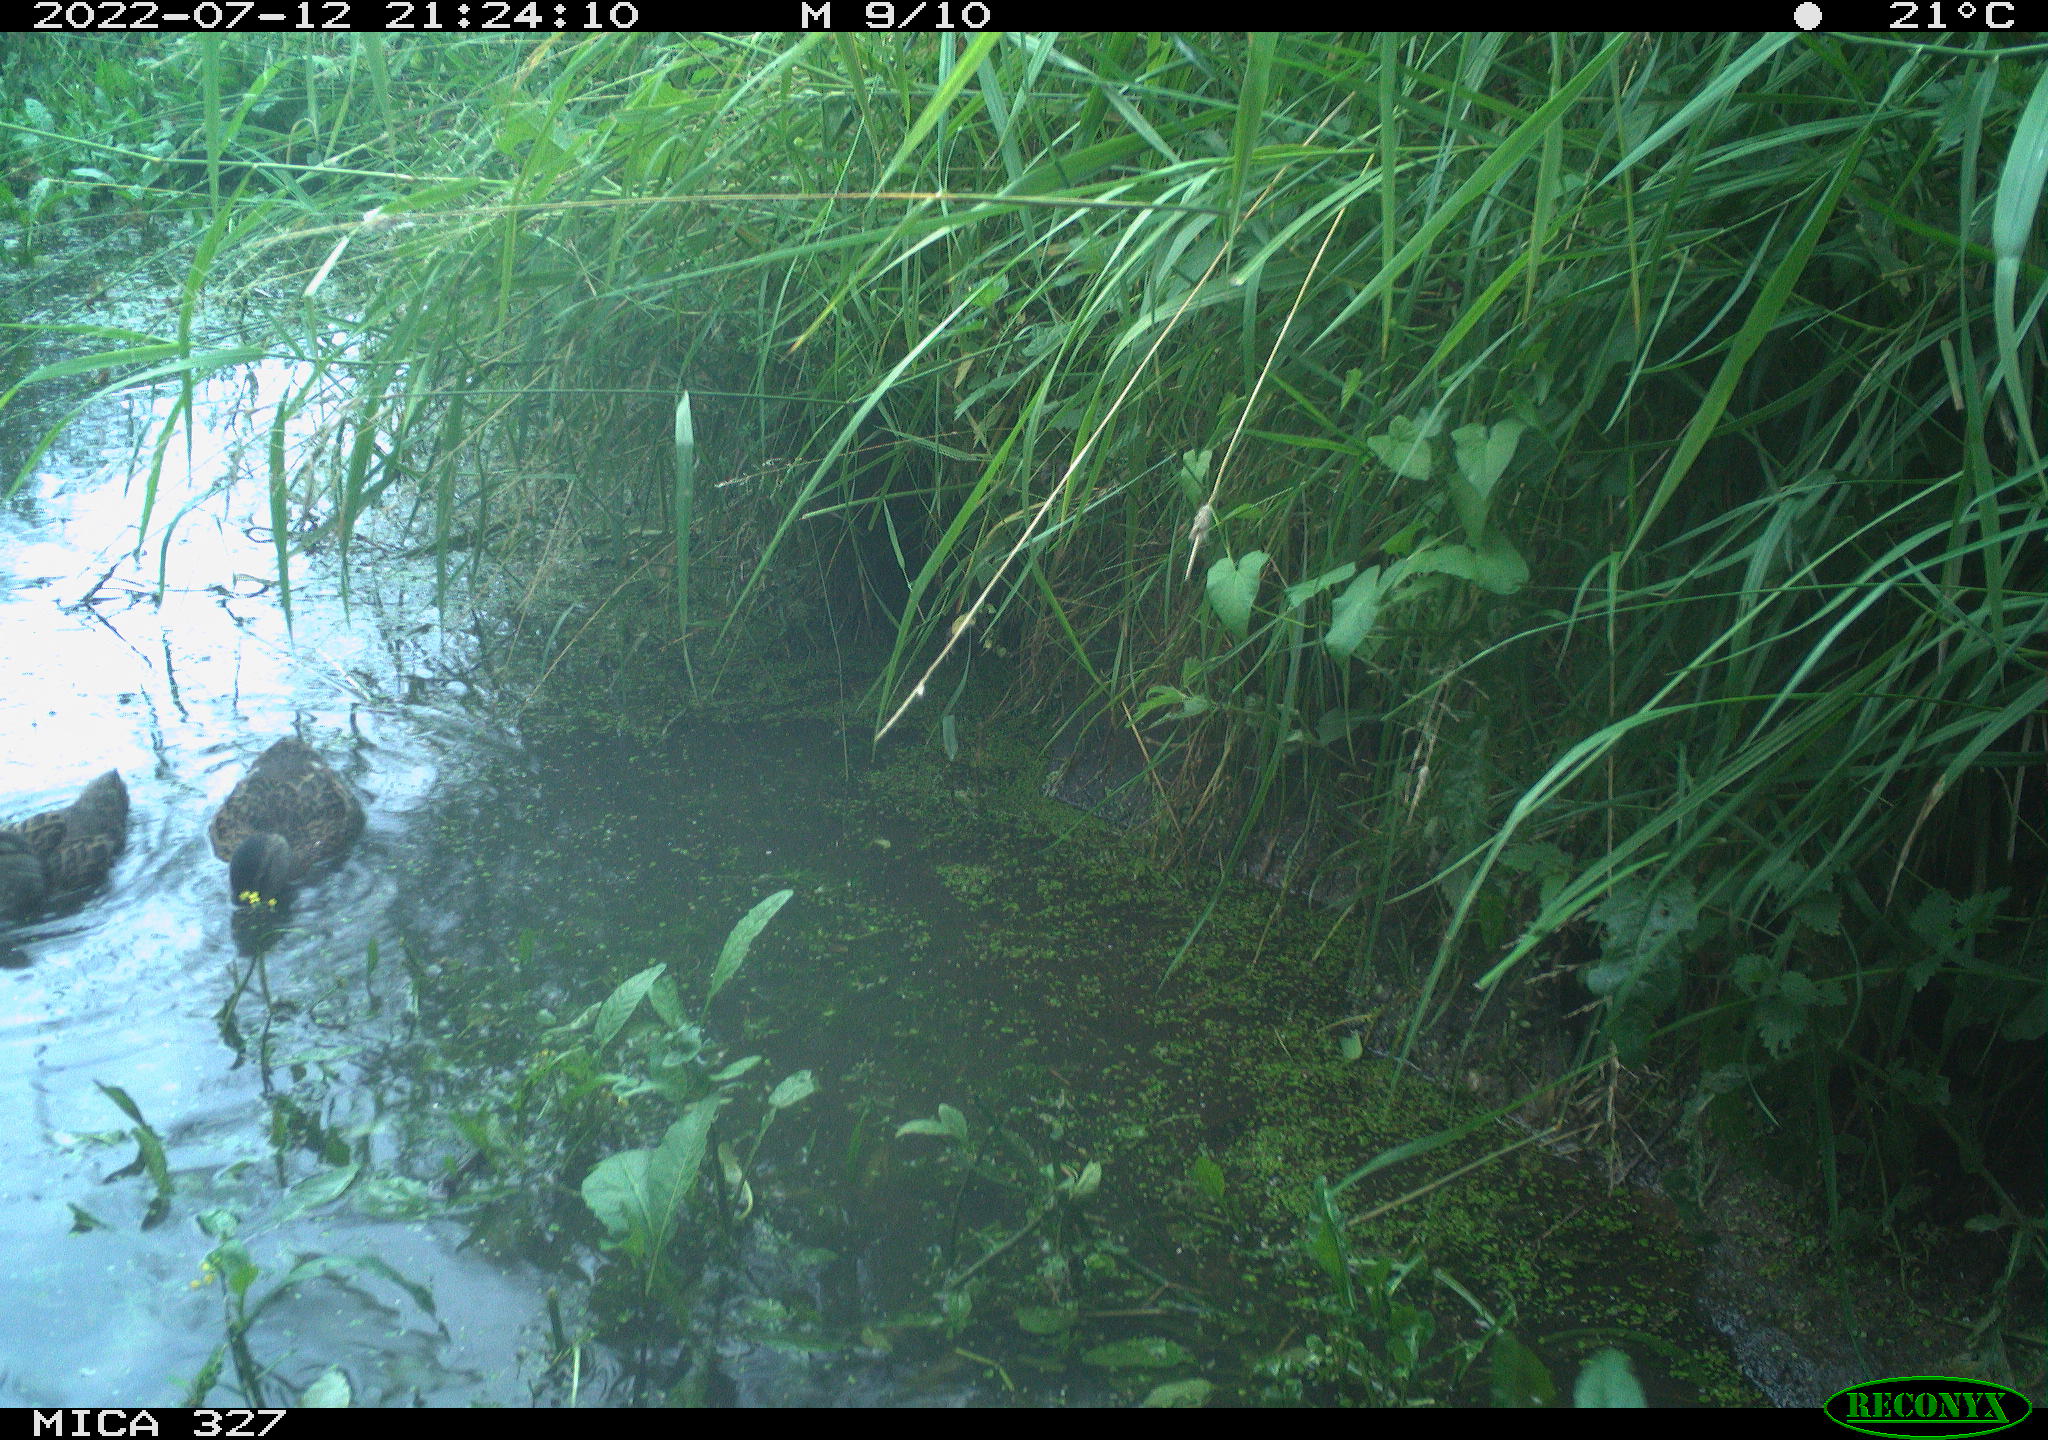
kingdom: Animalia
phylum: Chordata
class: Aves
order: Anseriformes
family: Anatidae
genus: Anas
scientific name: Anas platyrhynchos
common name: Mallard
